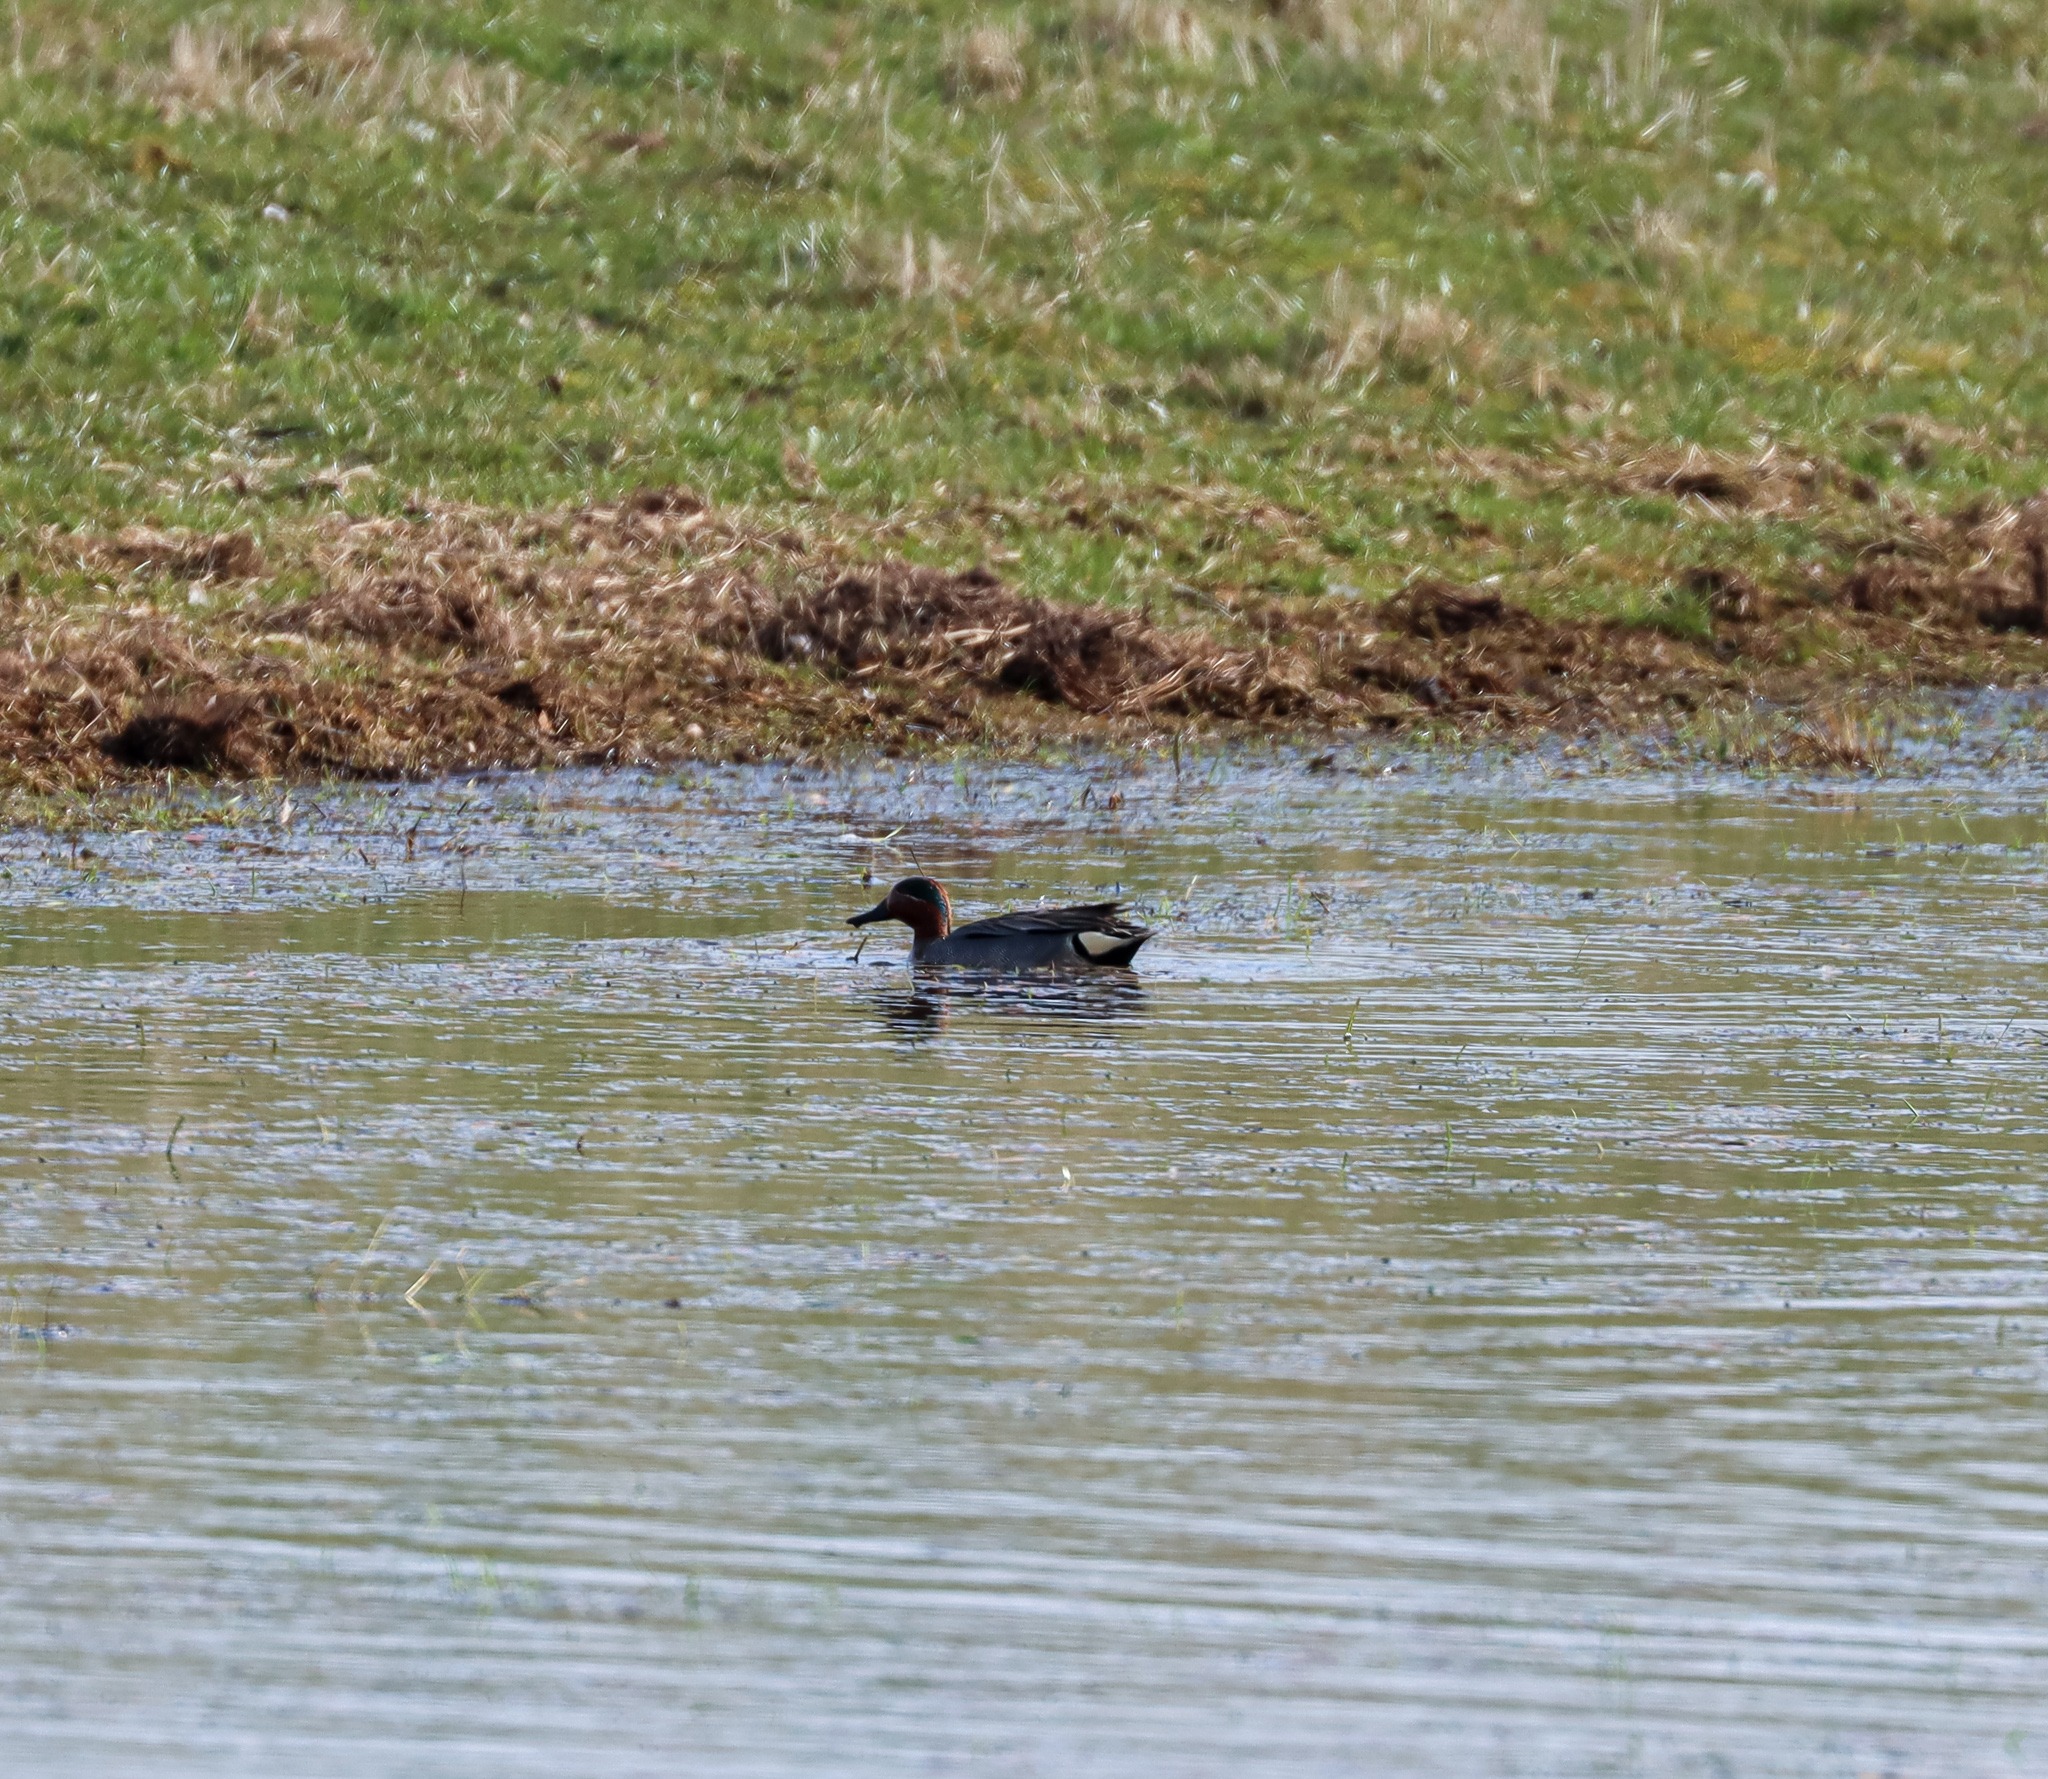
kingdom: Animalia
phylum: Chordata
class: Aves
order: Anseriformes
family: Anatidae
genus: Anas
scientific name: Anas crecca
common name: Krikand
